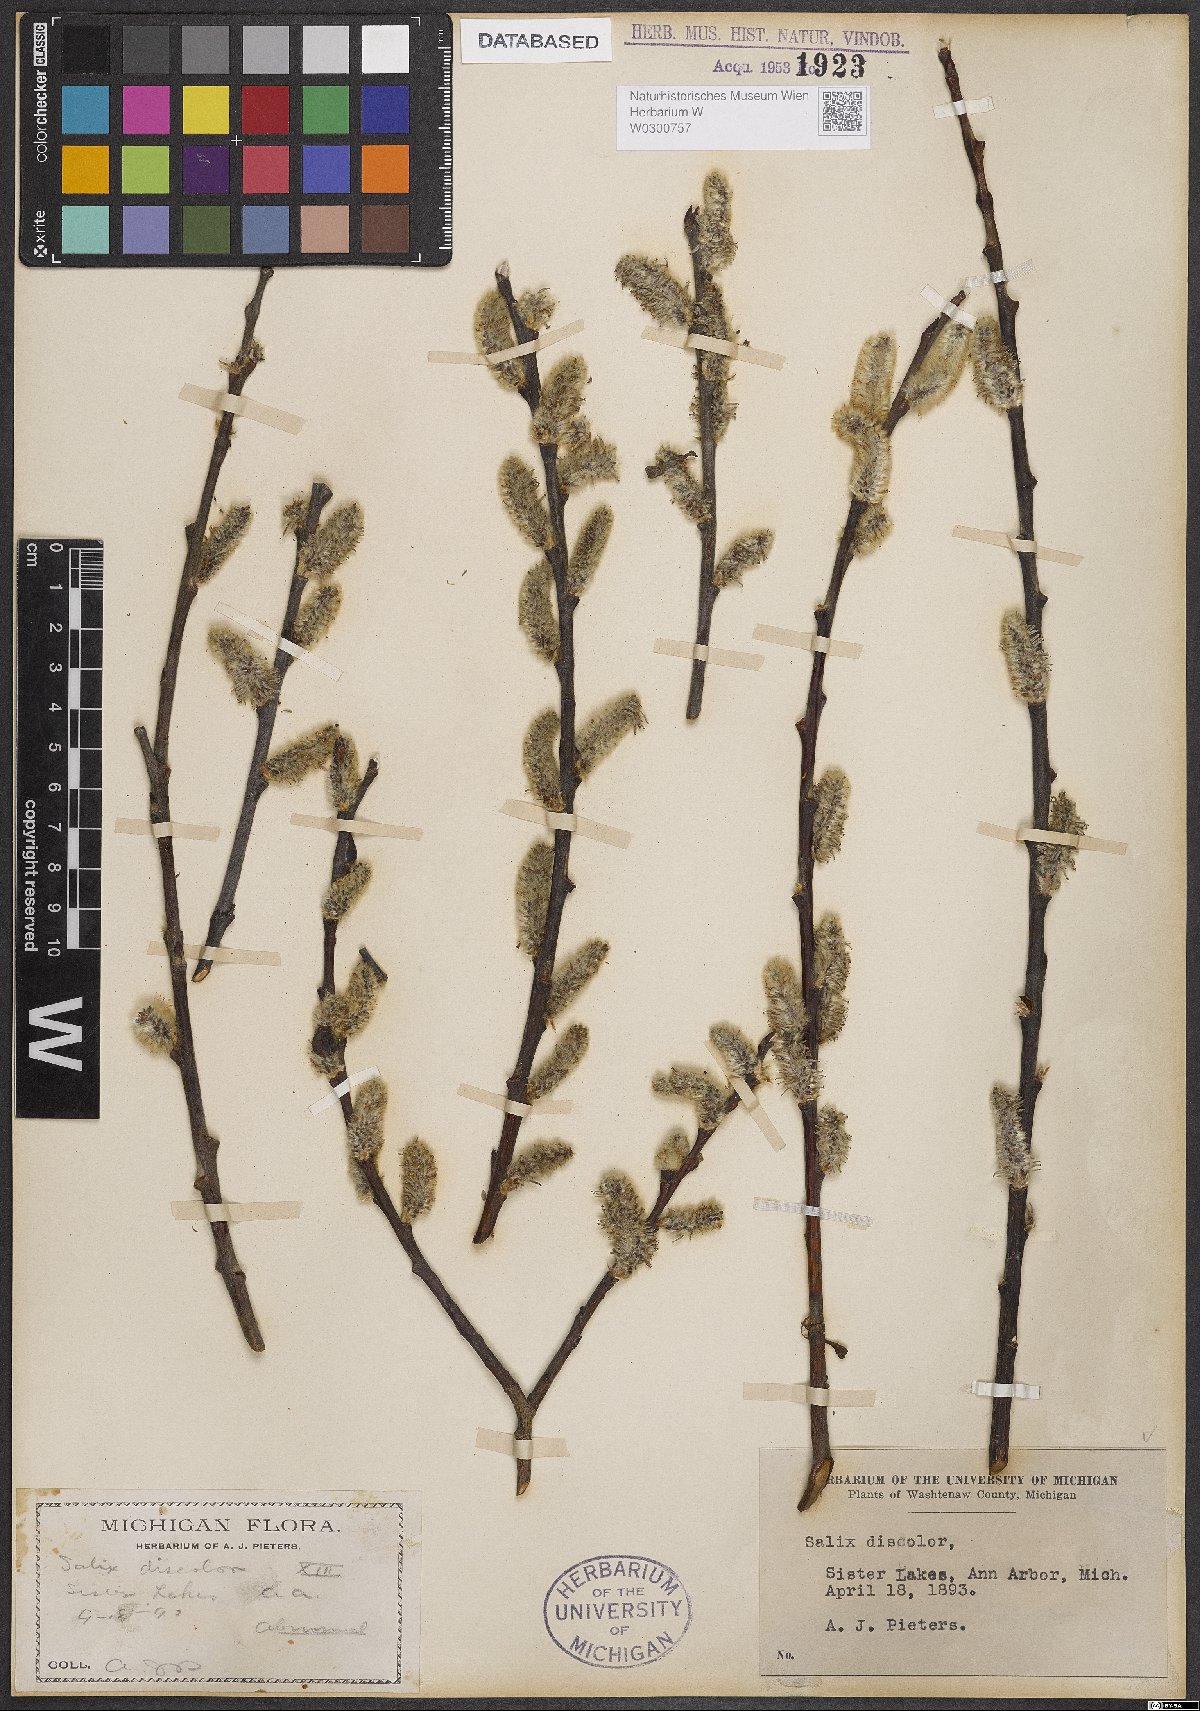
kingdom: Plantae
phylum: Tracheophyta
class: Magnoliopsida
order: Malpighiales
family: Salicaceae
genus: Salix
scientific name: Salix discolor
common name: Glaucous willow
